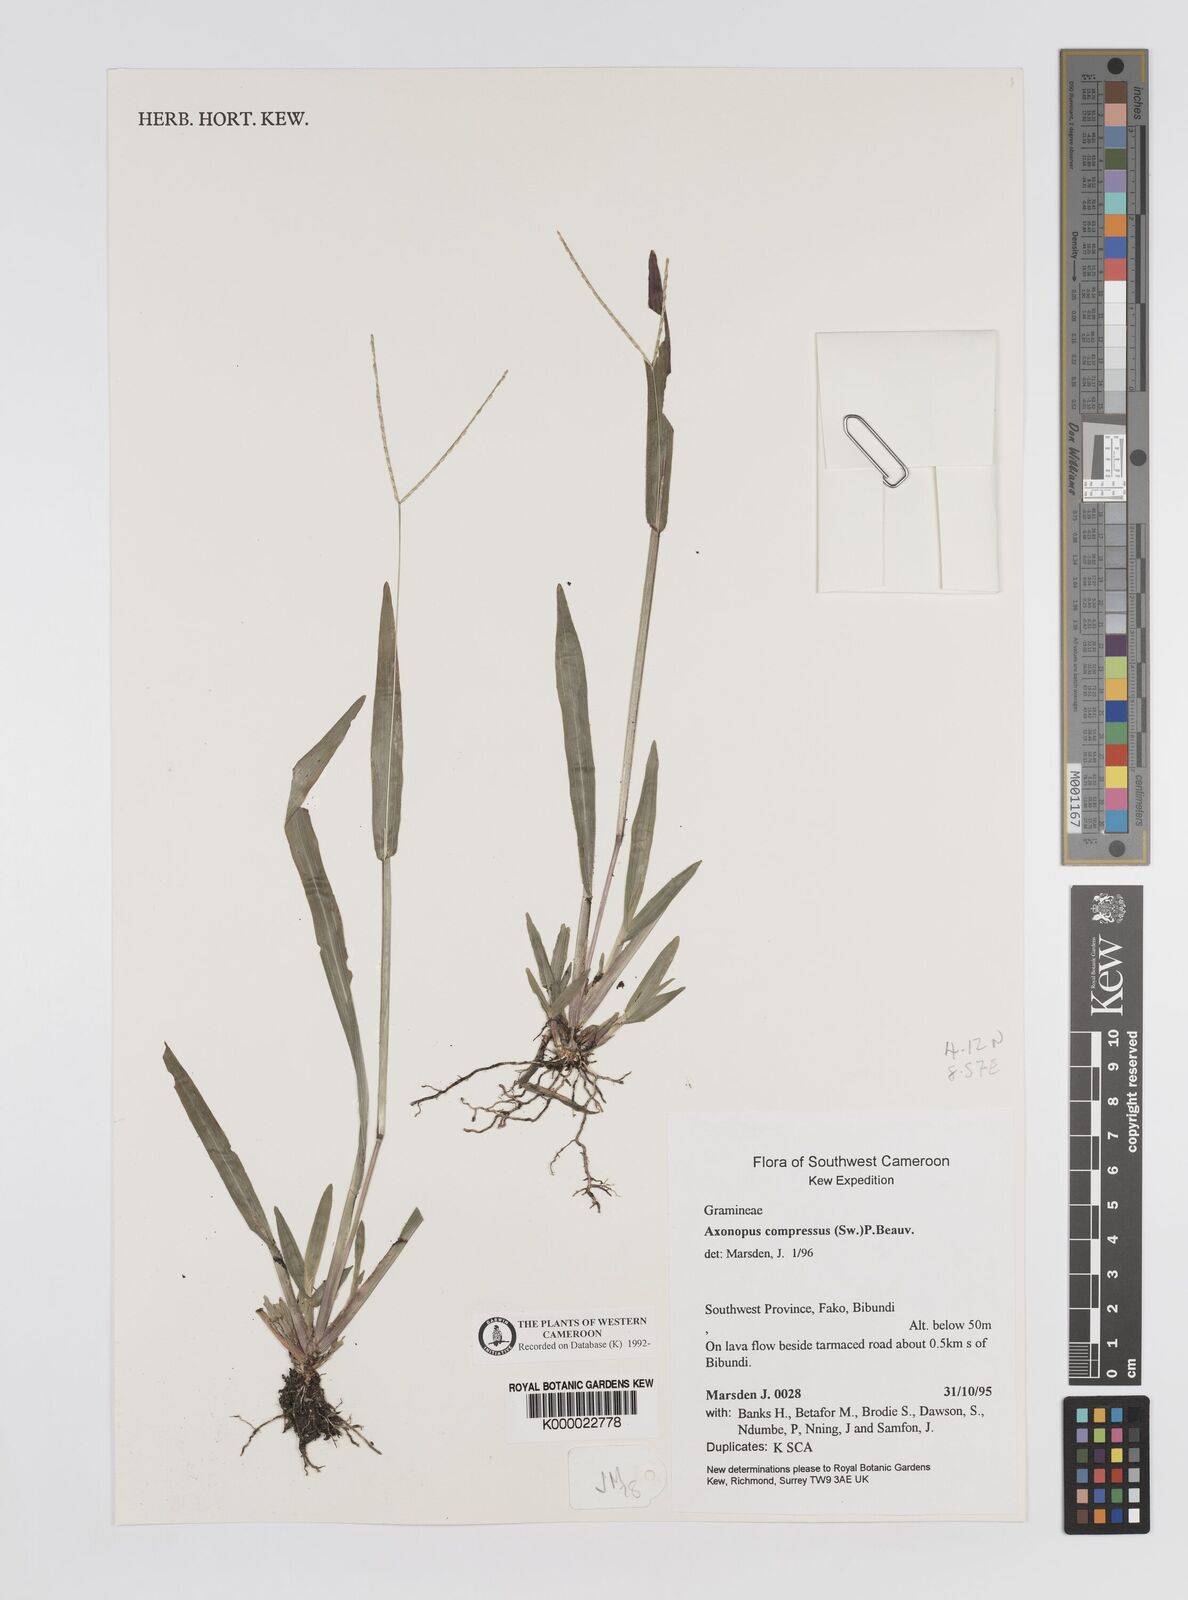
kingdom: Plantae
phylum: Tracheophyta
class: Liliopsida
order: Poales
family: Poaceae
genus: Axonopus
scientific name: Axonopus compressus
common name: American carpet grass
